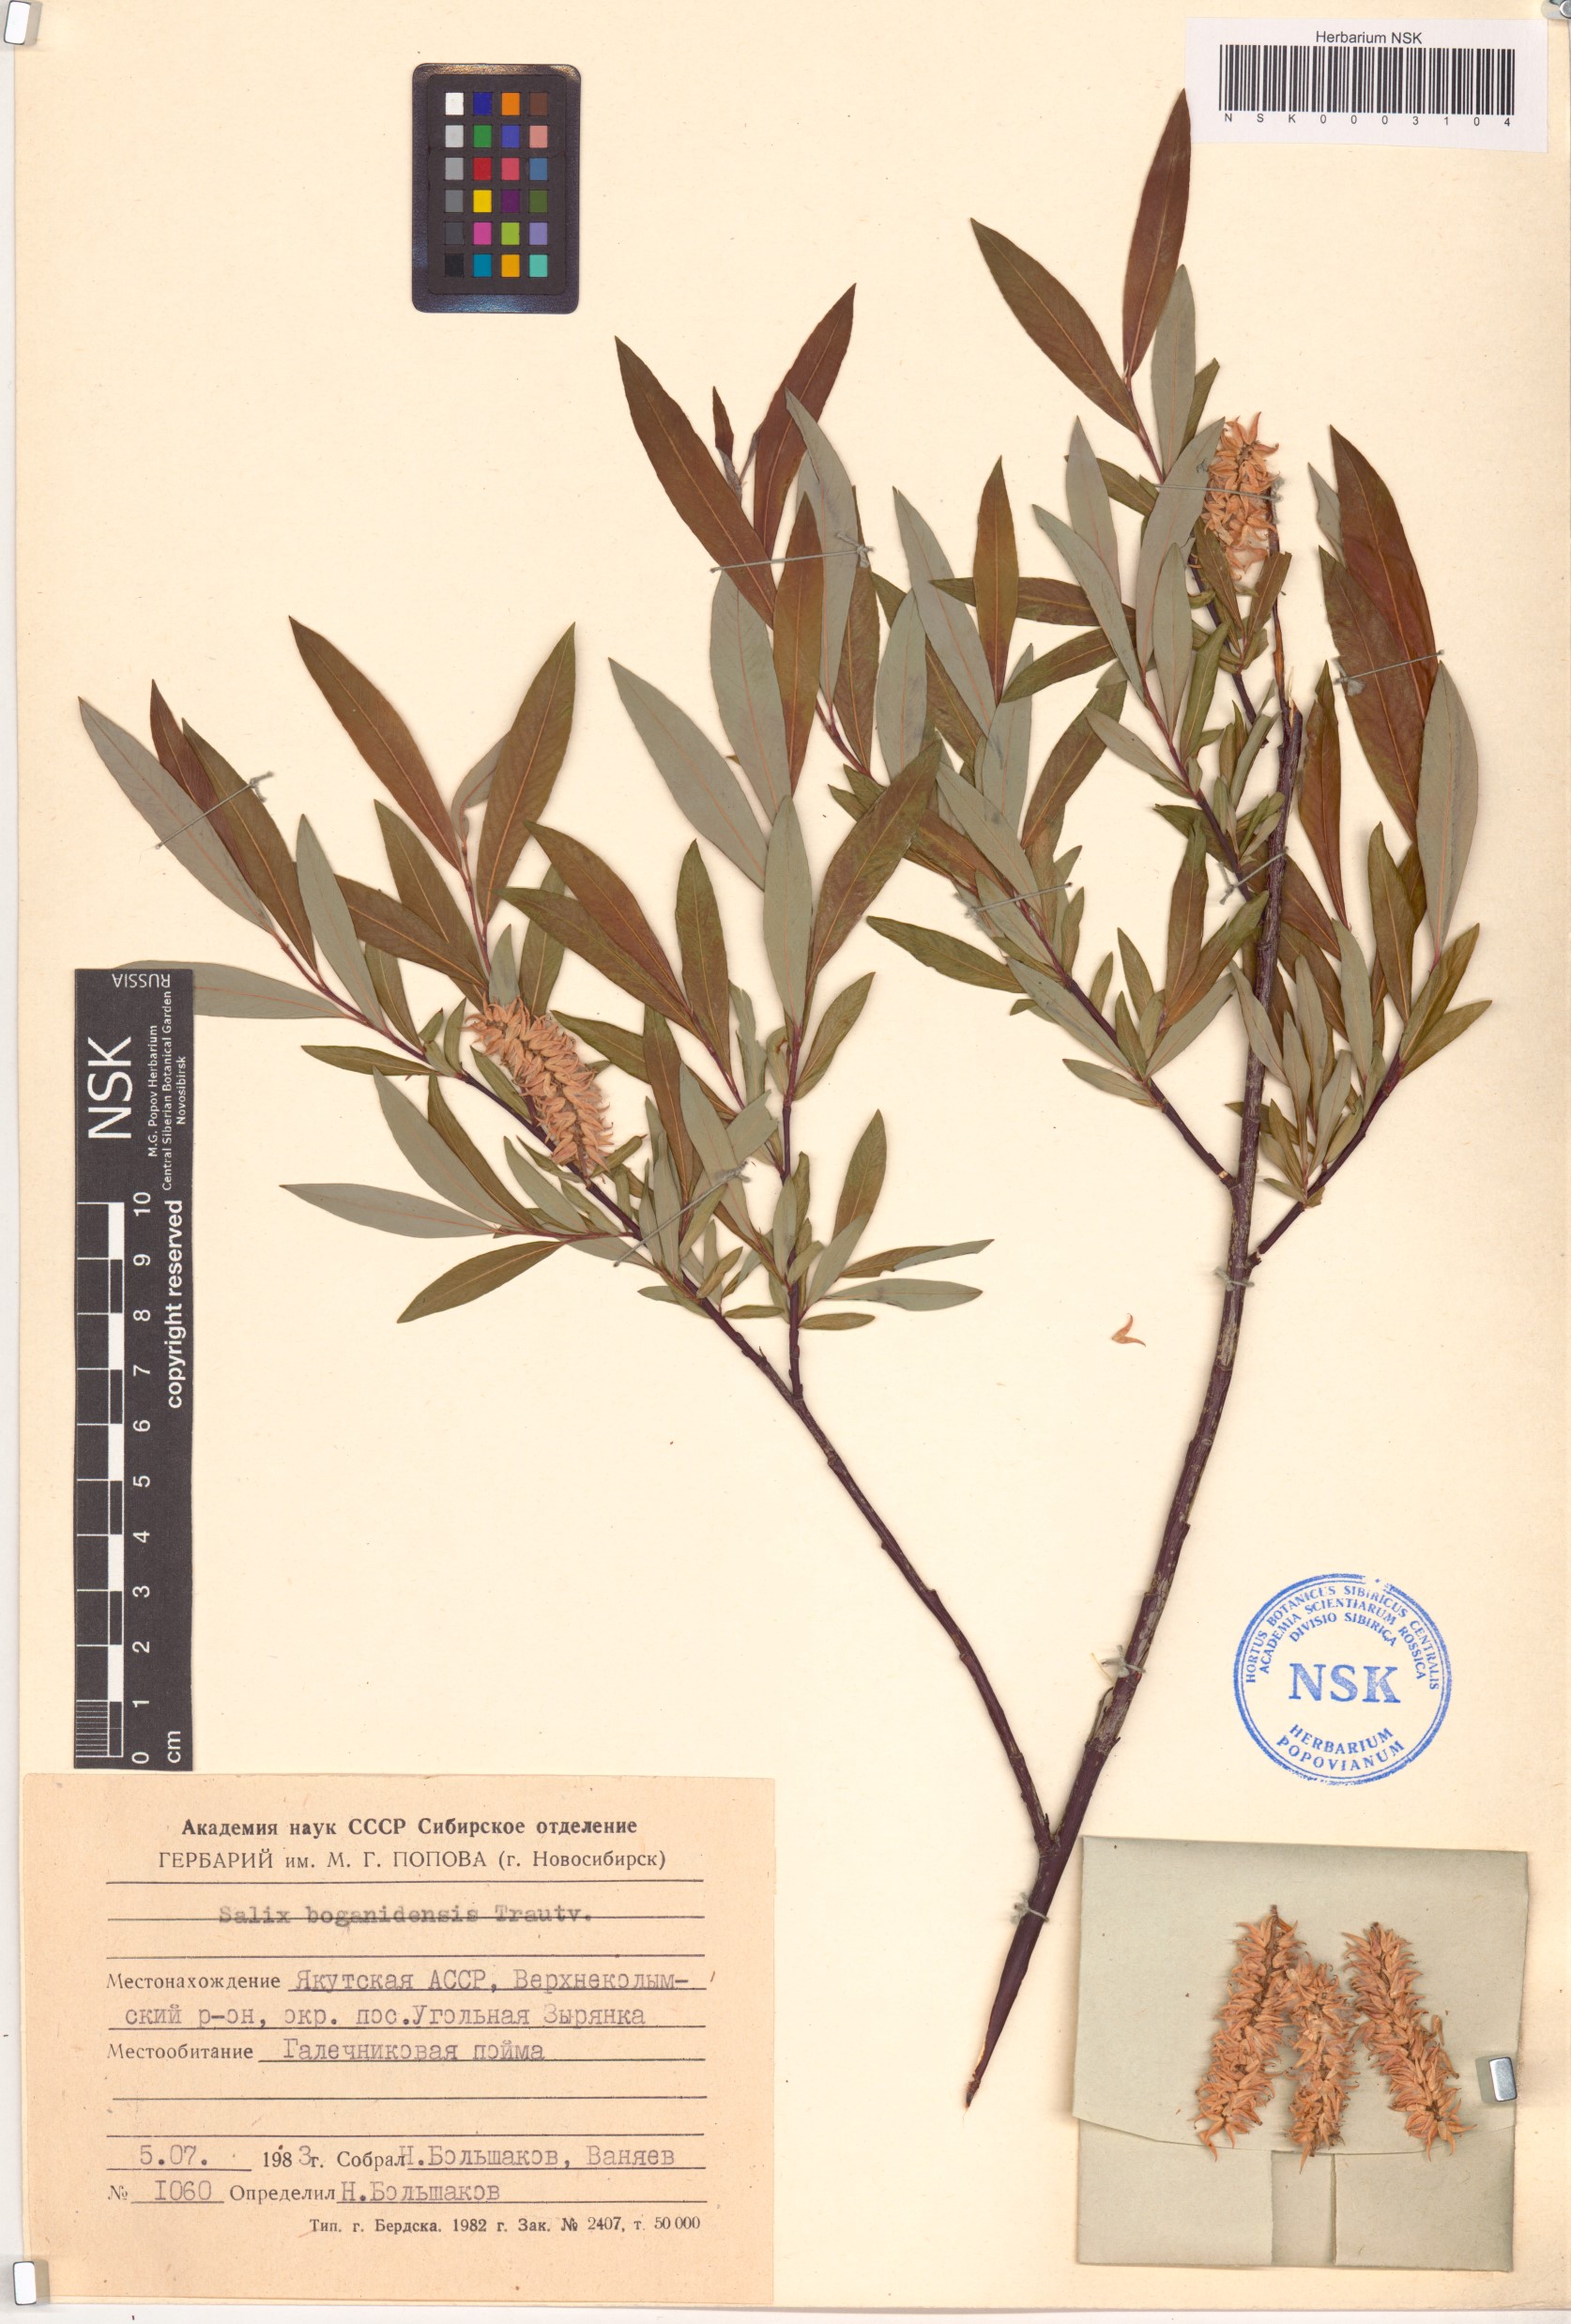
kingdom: Plantae
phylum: Tracheophyta
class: Magnoliopsida
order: Malpighiales
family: Salicaceae
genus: Salix
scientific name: Salix boganidensis
